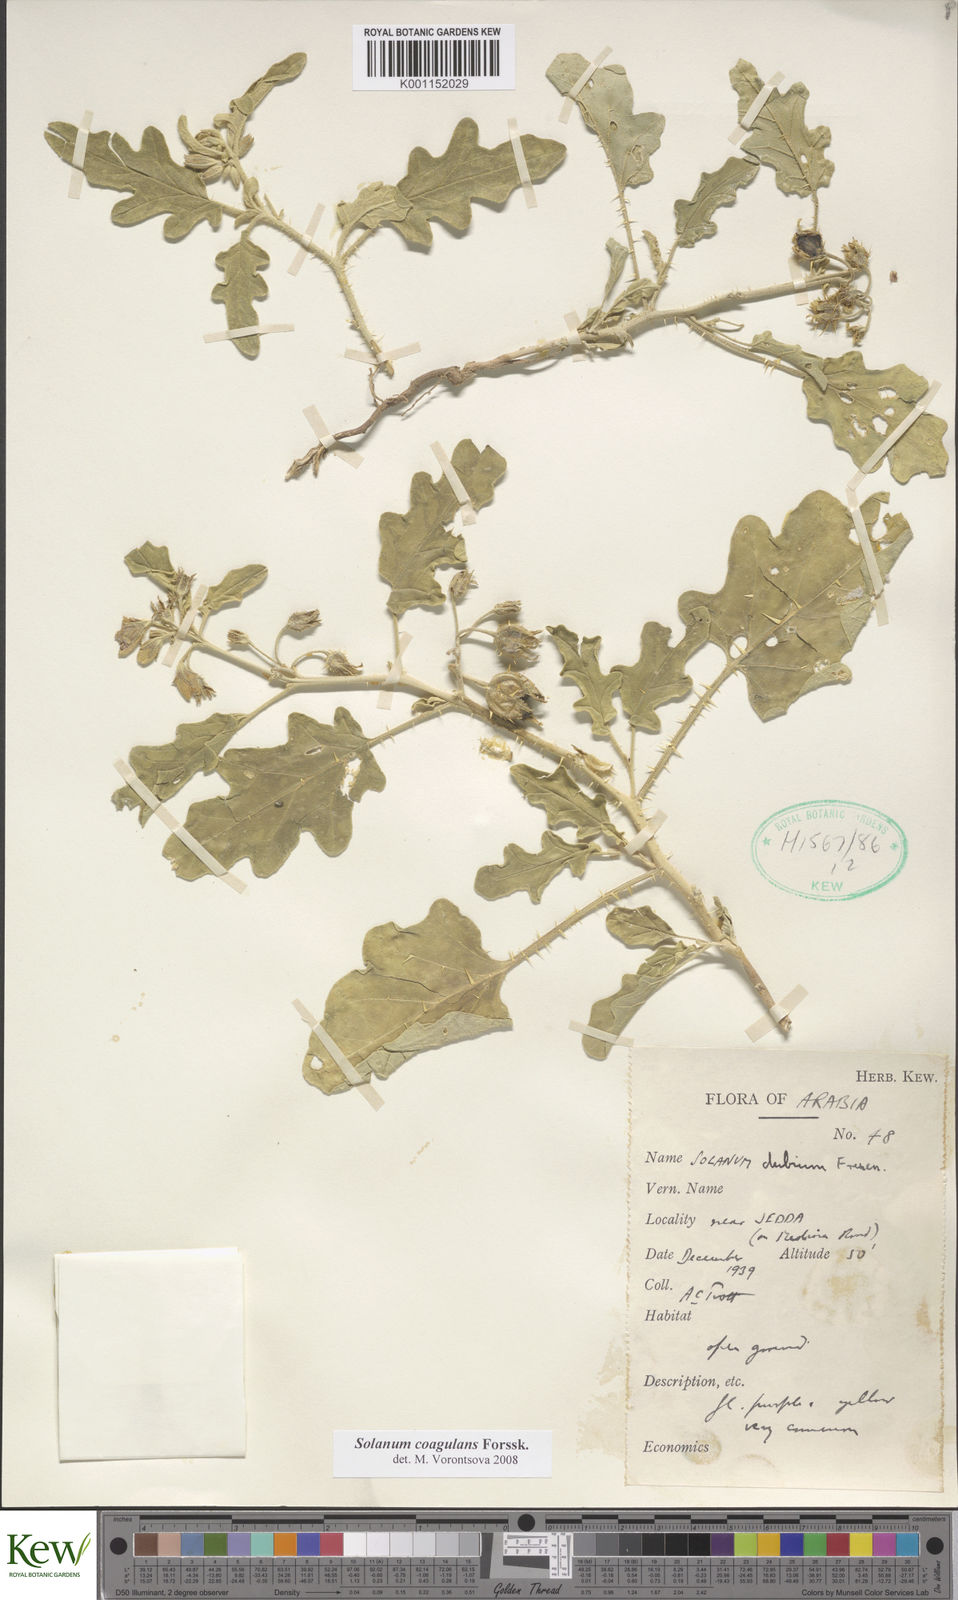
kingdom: Plantae
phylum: Tracheophyta
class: Magnoliopsida
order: Solanales
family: Solanaceae
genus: Solanum
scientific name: Solanum coagulans
